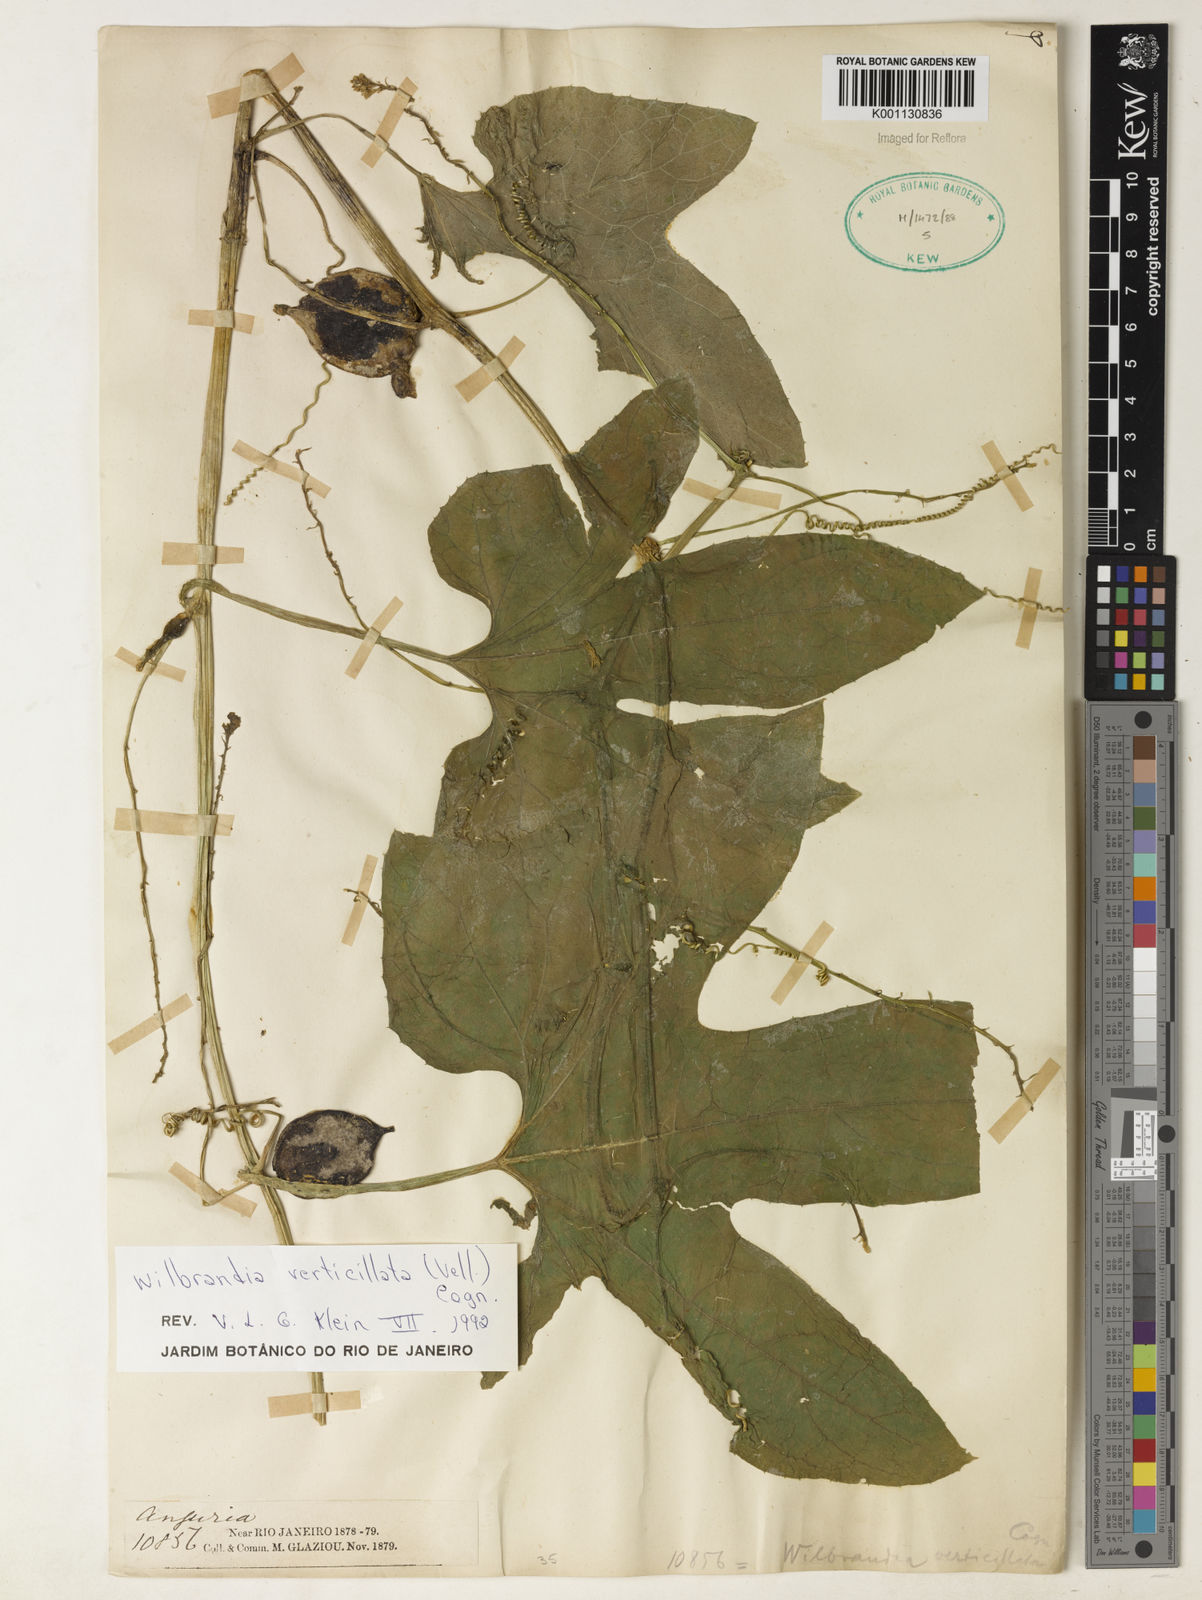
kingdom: Plantae
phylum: Tracheophyta
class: Magnoliopsida
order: Cucurbitales
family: Cucurbitaceae
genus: Wilbrandia
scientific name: Wilbrandia verticillata
